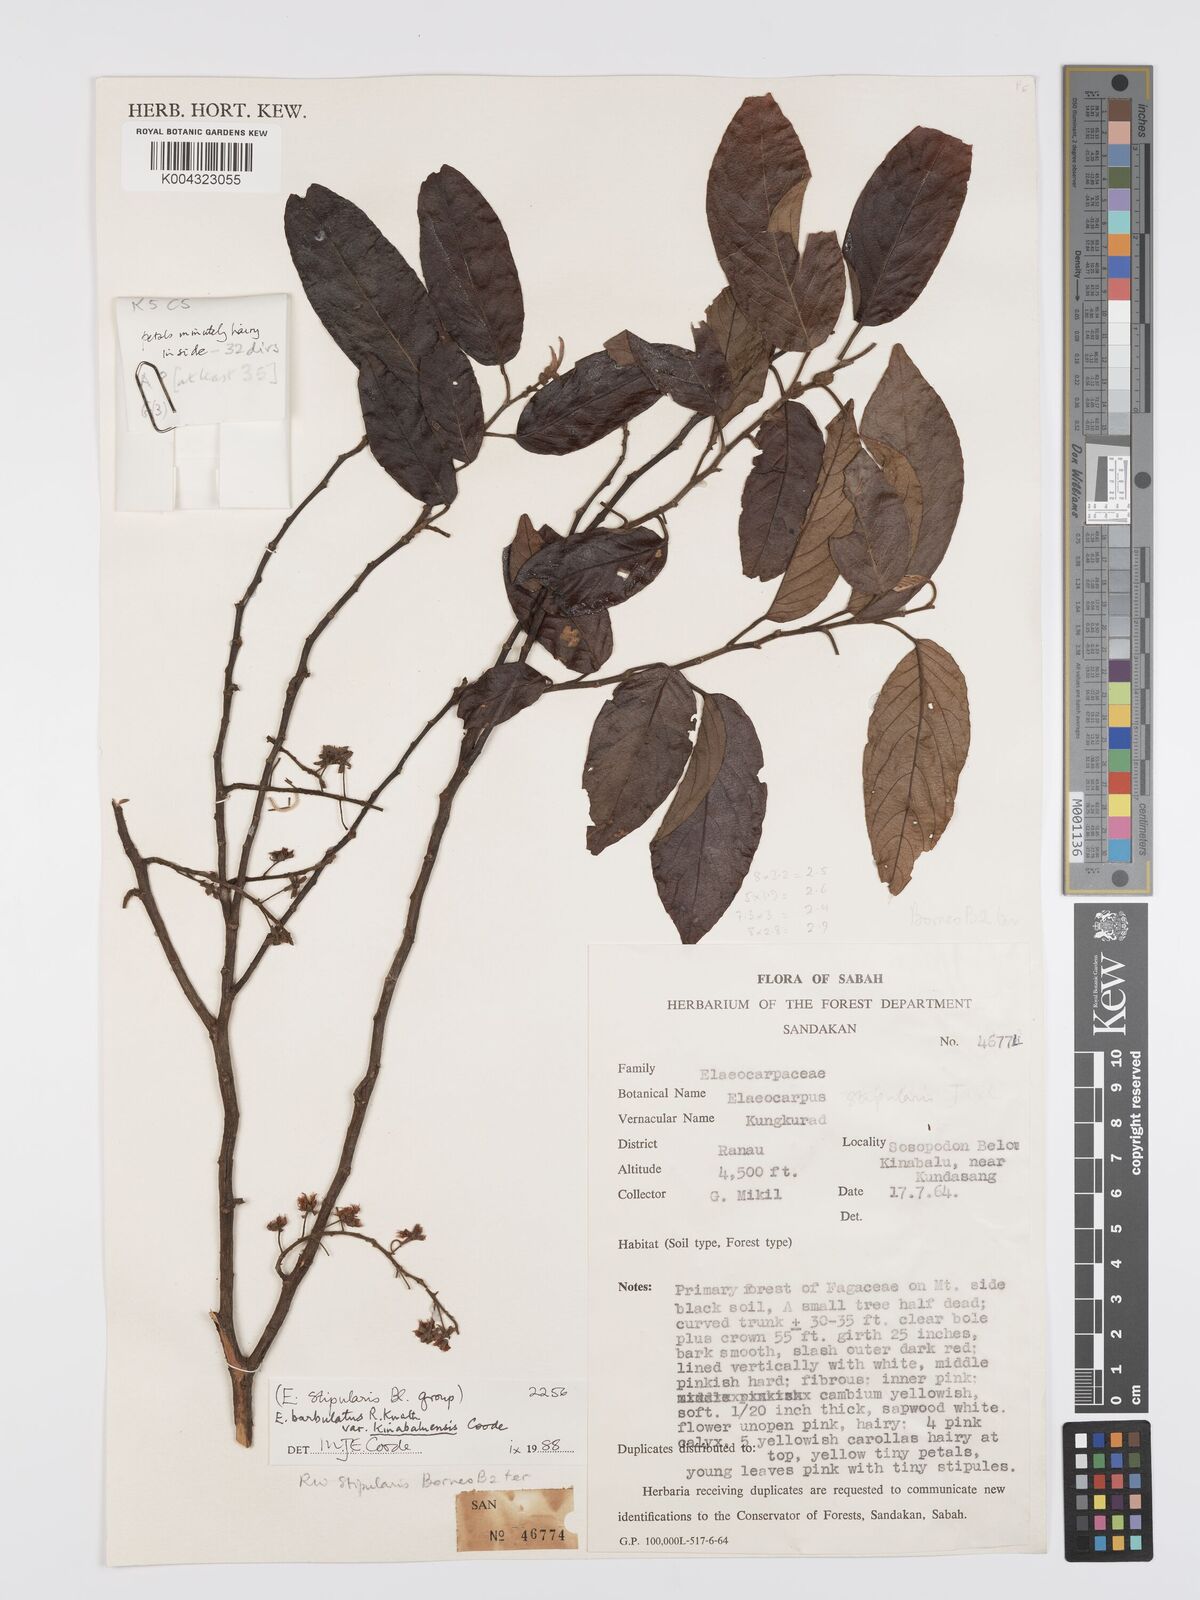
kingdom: Plantae
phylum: Tracheophyta
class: Magnoliopsida
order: Oxalidales
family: Elaeocarpaceae
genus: Elaeocarpus
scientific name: Elaeocarpus barbulatus
